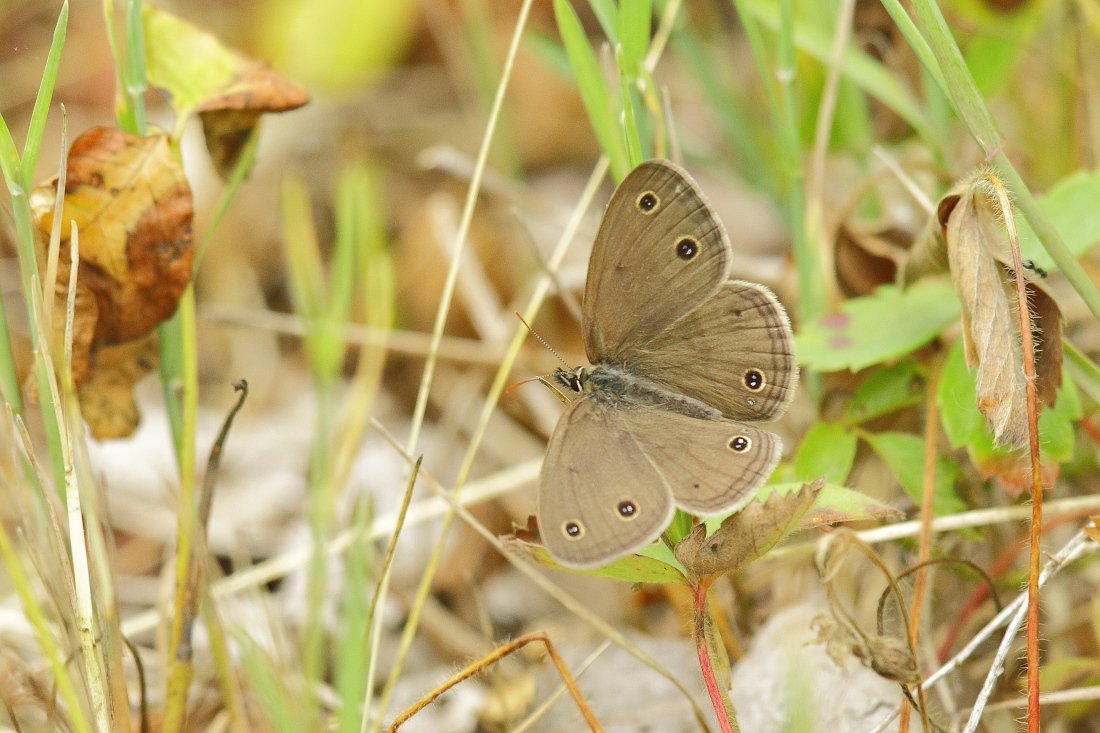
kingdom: Animalia
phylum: Arthropoda
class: Insecta
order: Lepidoptera
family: Nymphalidae
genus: Euptychia
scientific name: Euptychia cymela
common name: Little Wood Satyr
